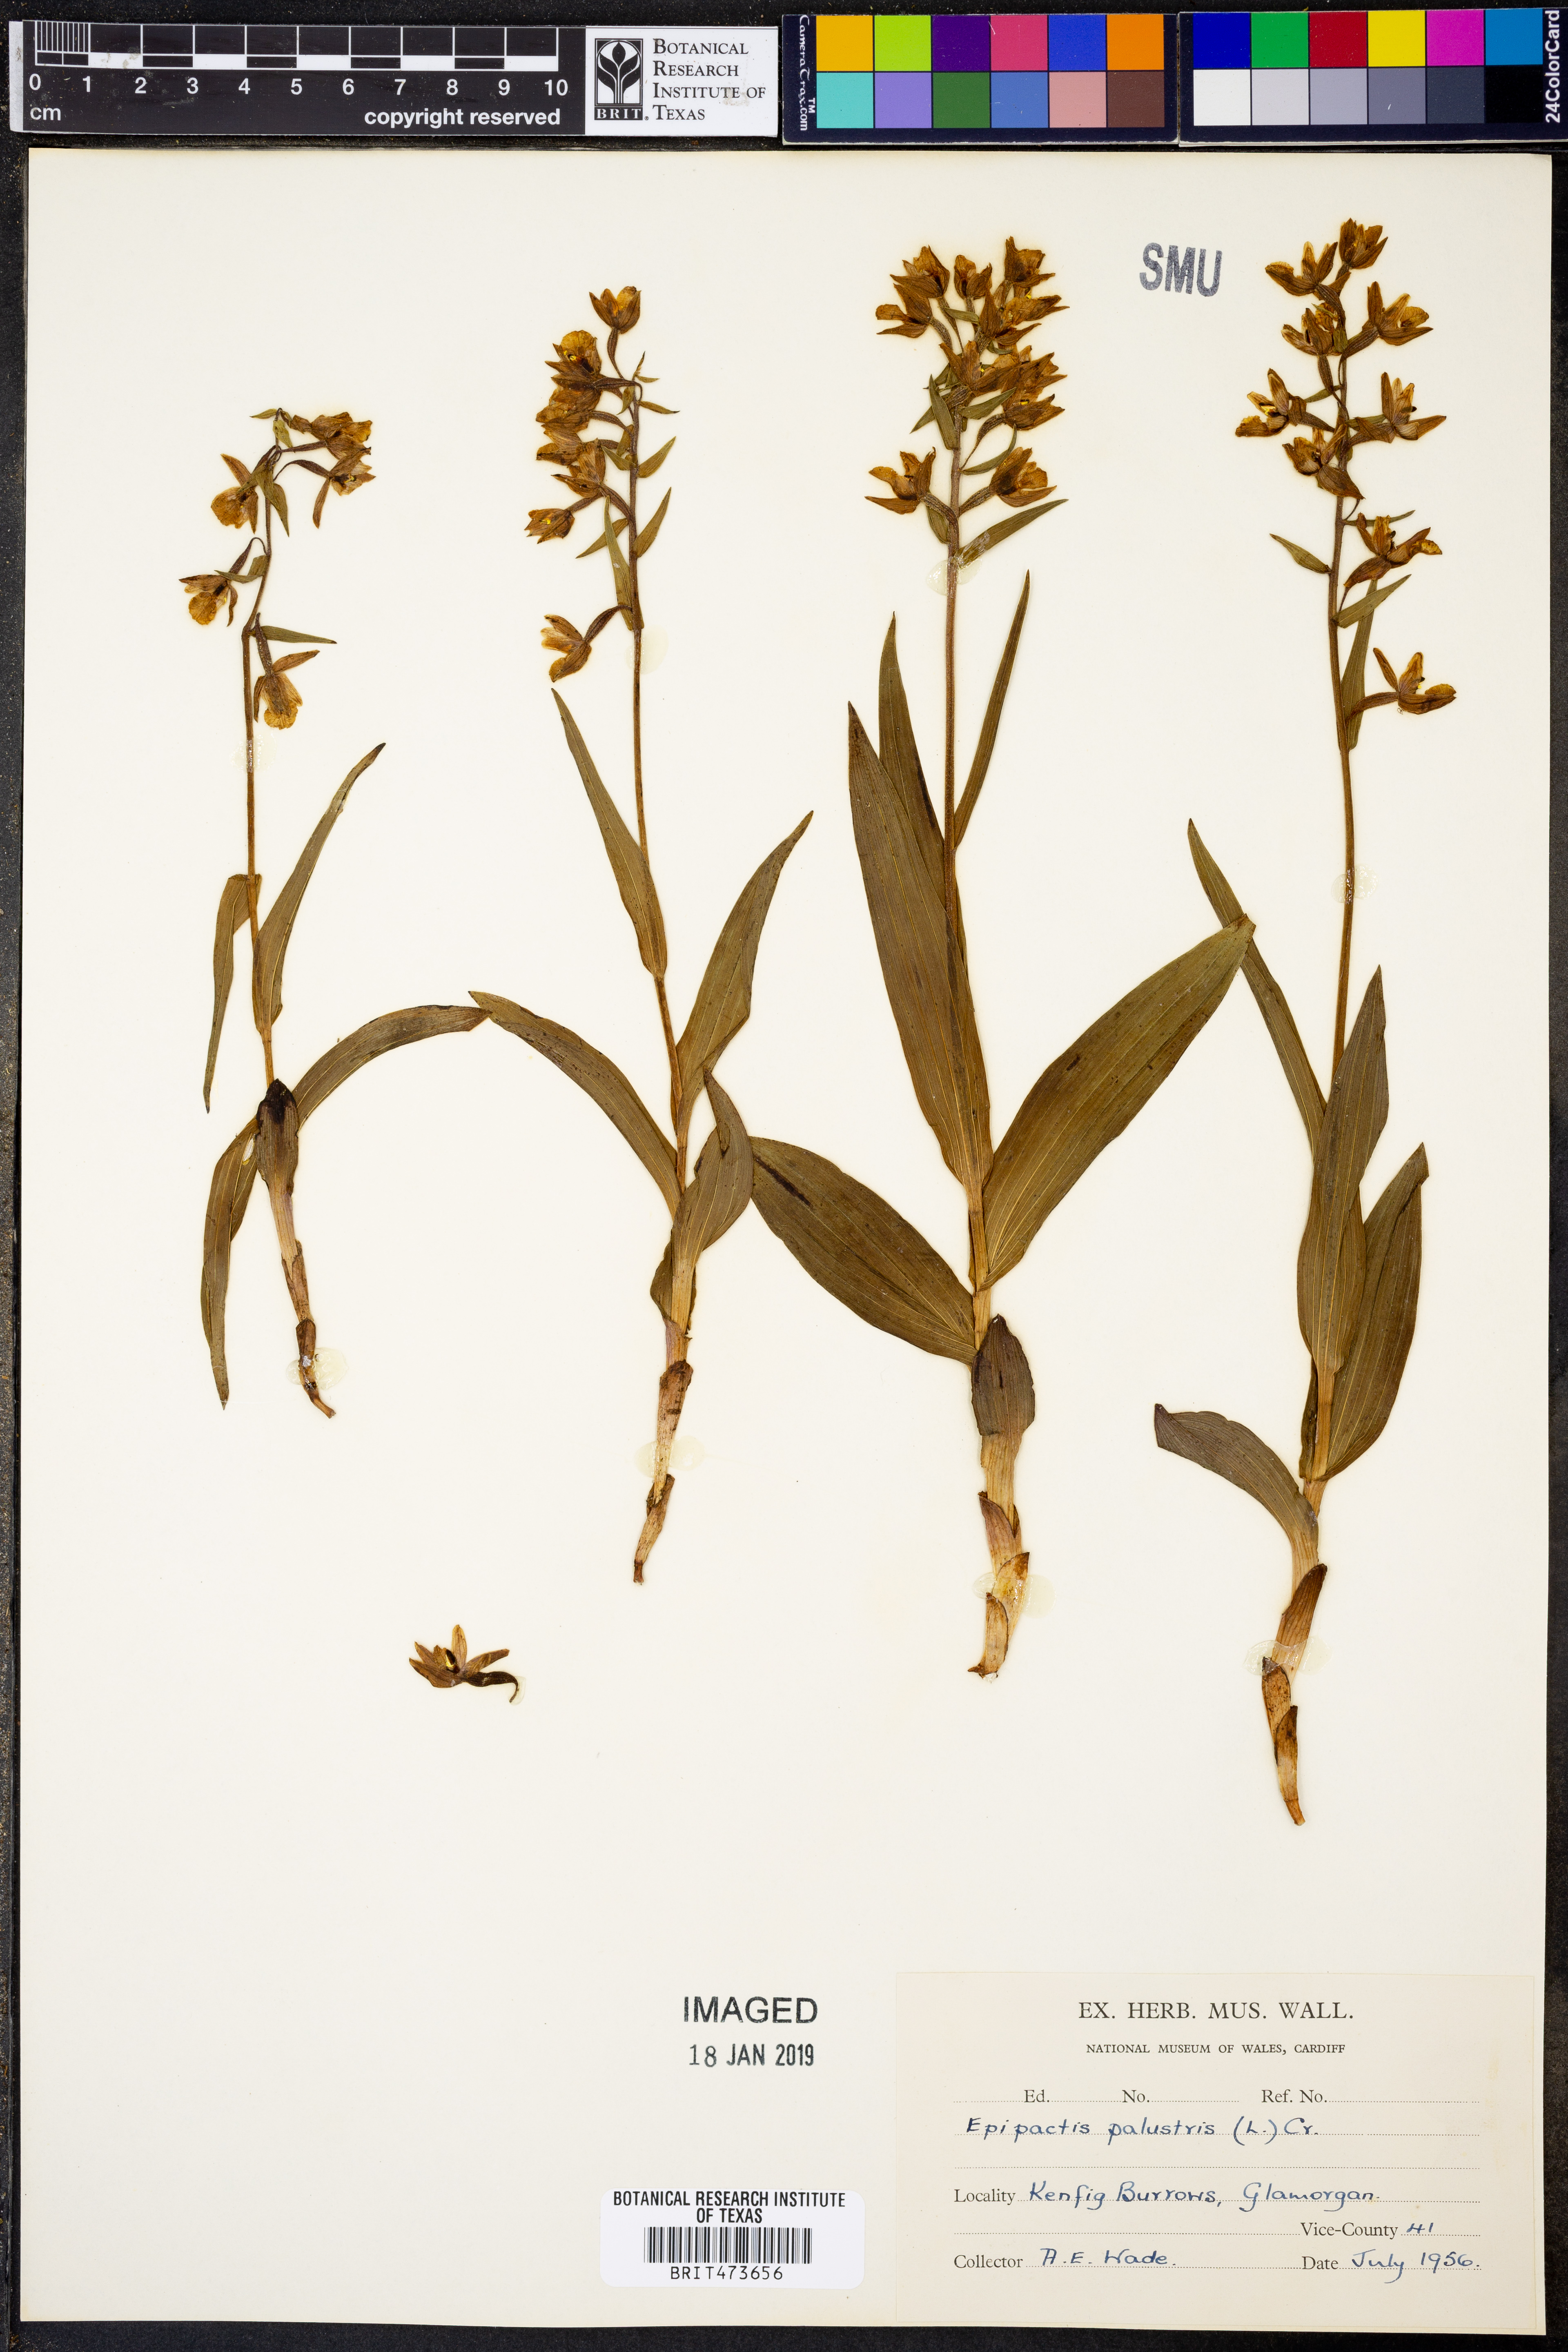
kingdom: Plantae
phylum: Tracheophyta
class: Liliopsida
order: Asparagales
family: Orchidaceae
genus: Epipactis
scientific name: Epipactis palustris
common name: Marsh helleborine
